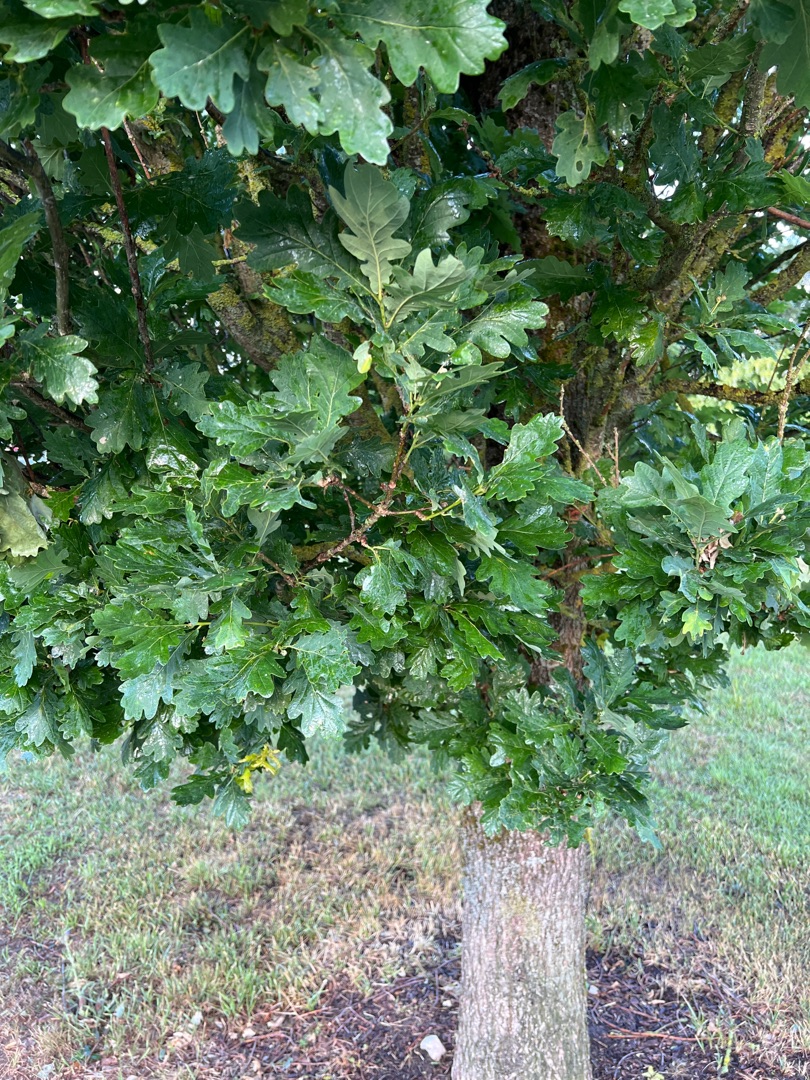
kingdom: Plantae
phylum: Tracheophyta
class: Magnoliopsida
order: Fagales
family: Fagaceae
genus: Quercus
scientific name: Quercus robur
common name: Stilk-eg/almindelig eg
